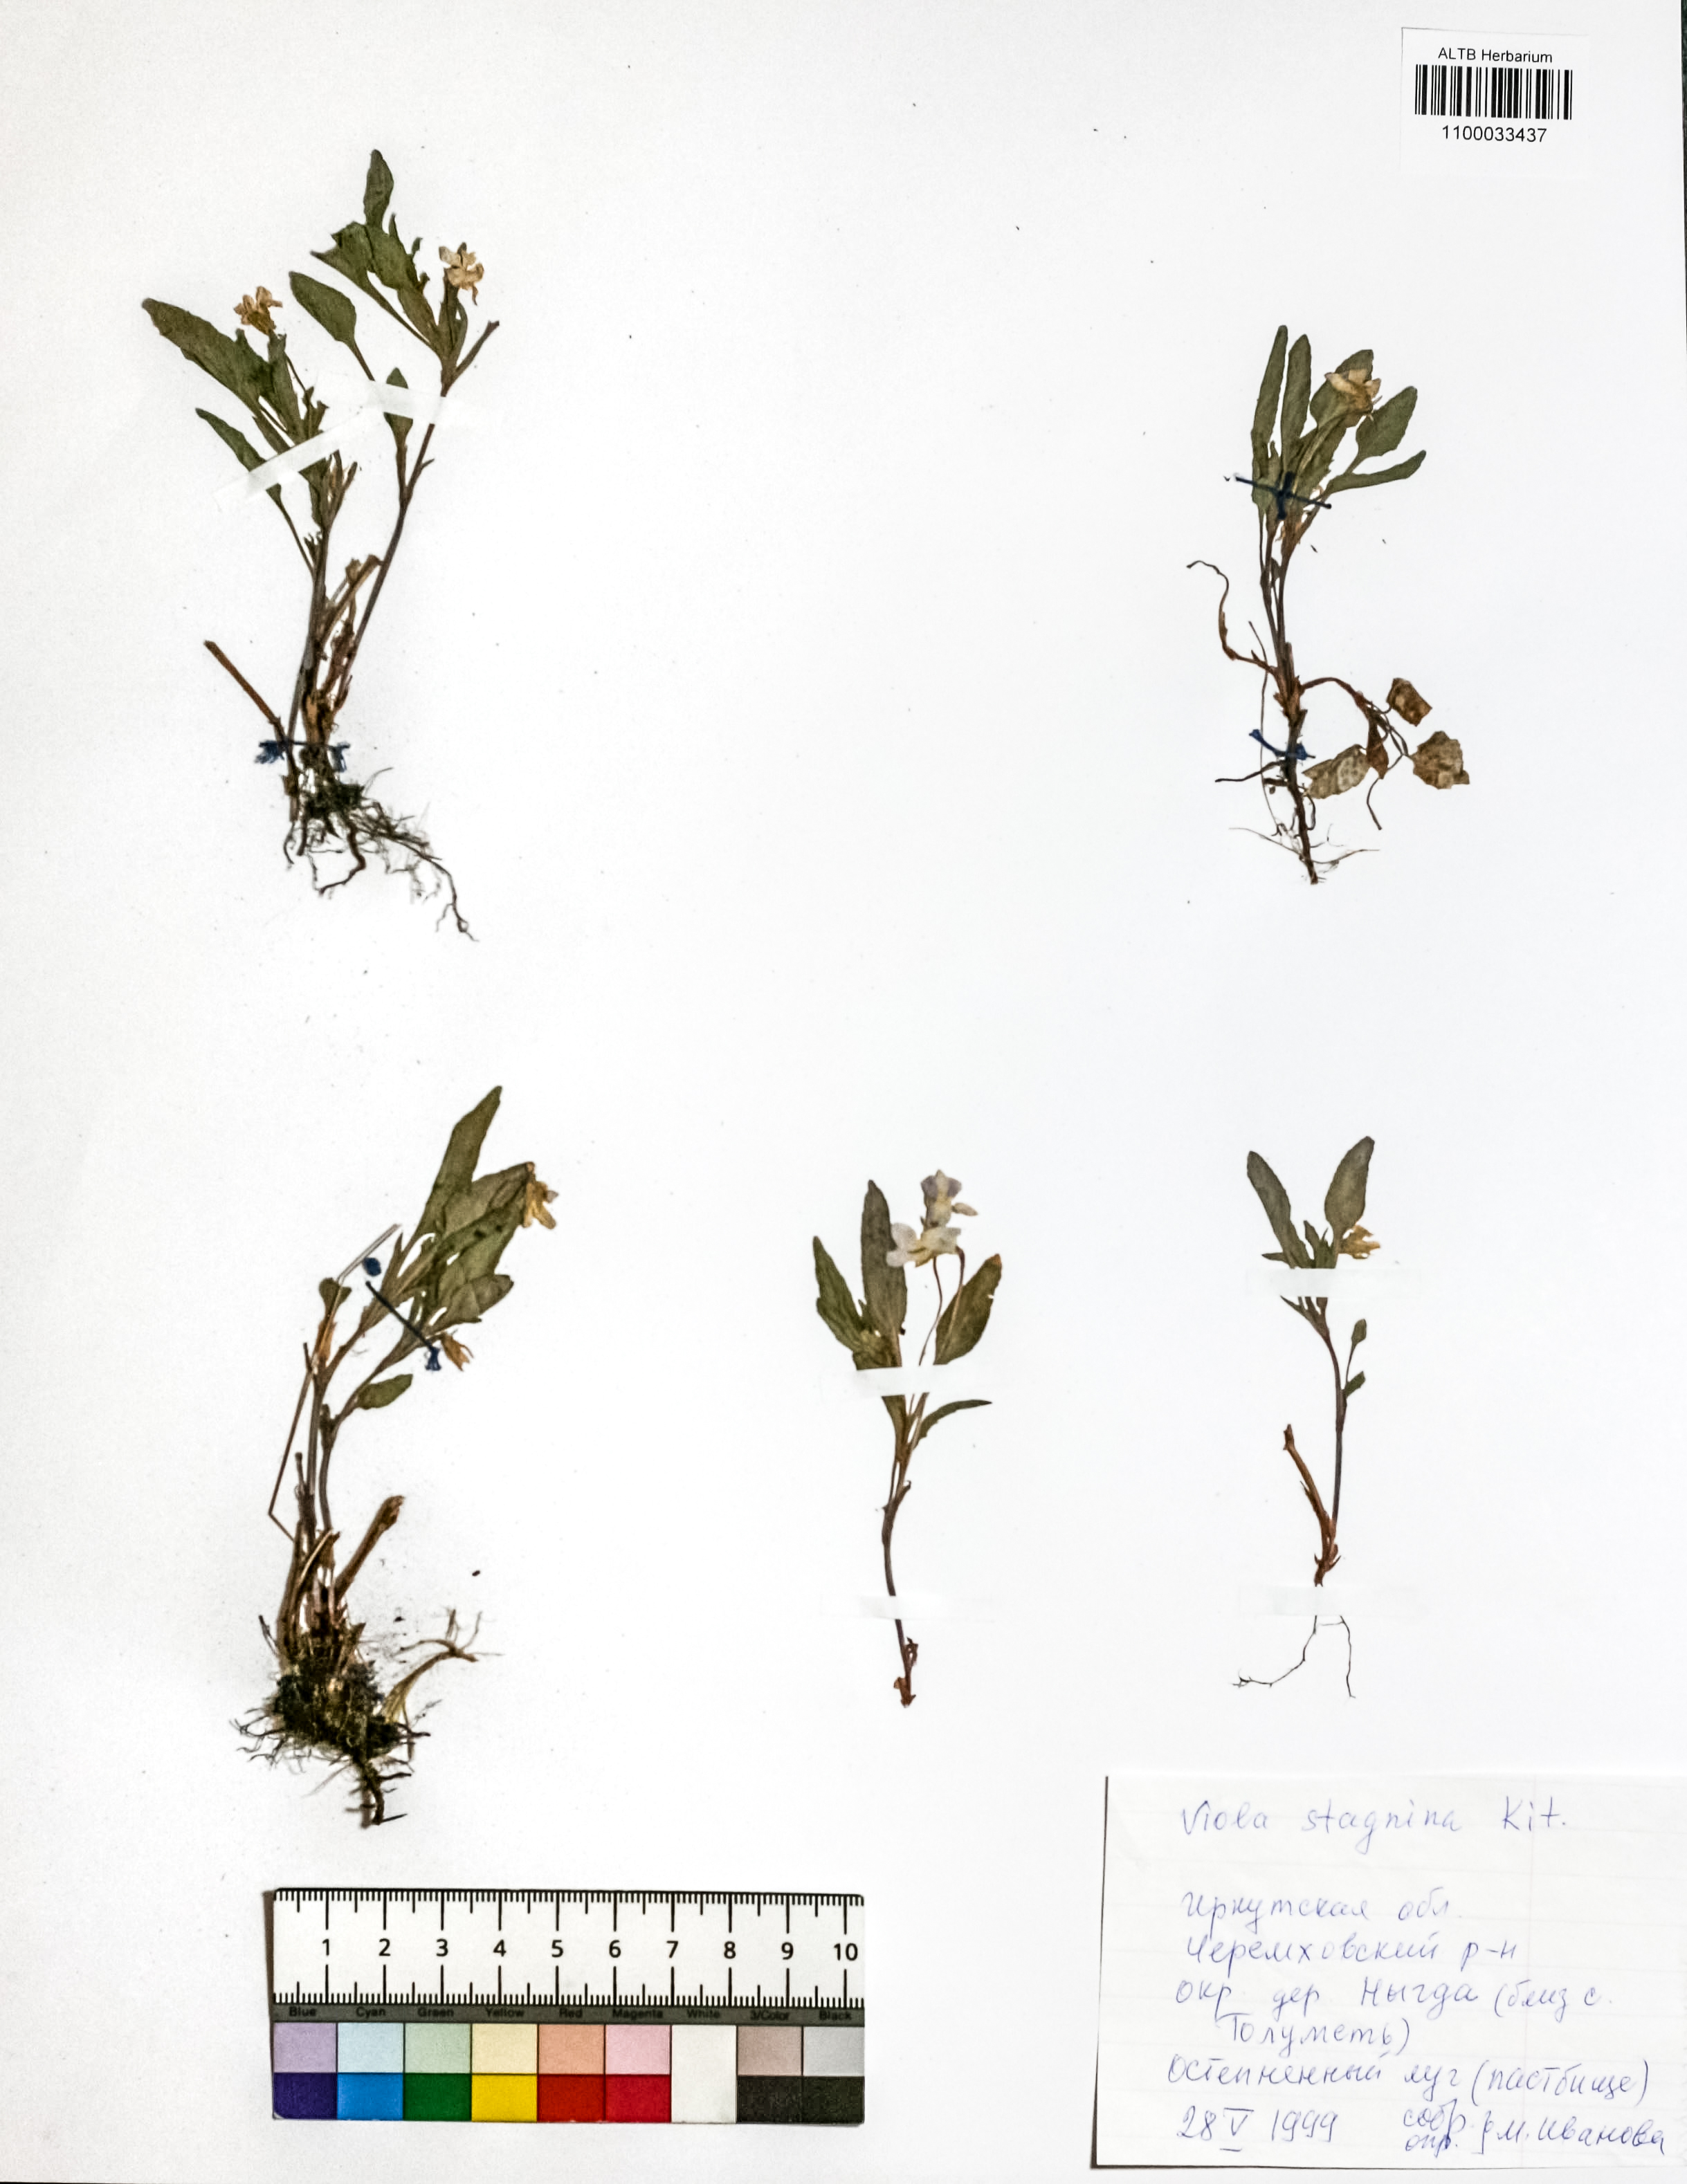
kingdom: Plantae
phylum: Tracheophyta
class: Magnoliopsida
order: Malpighiales
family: Violaceae
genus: Viola
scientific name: Viola stagnina
